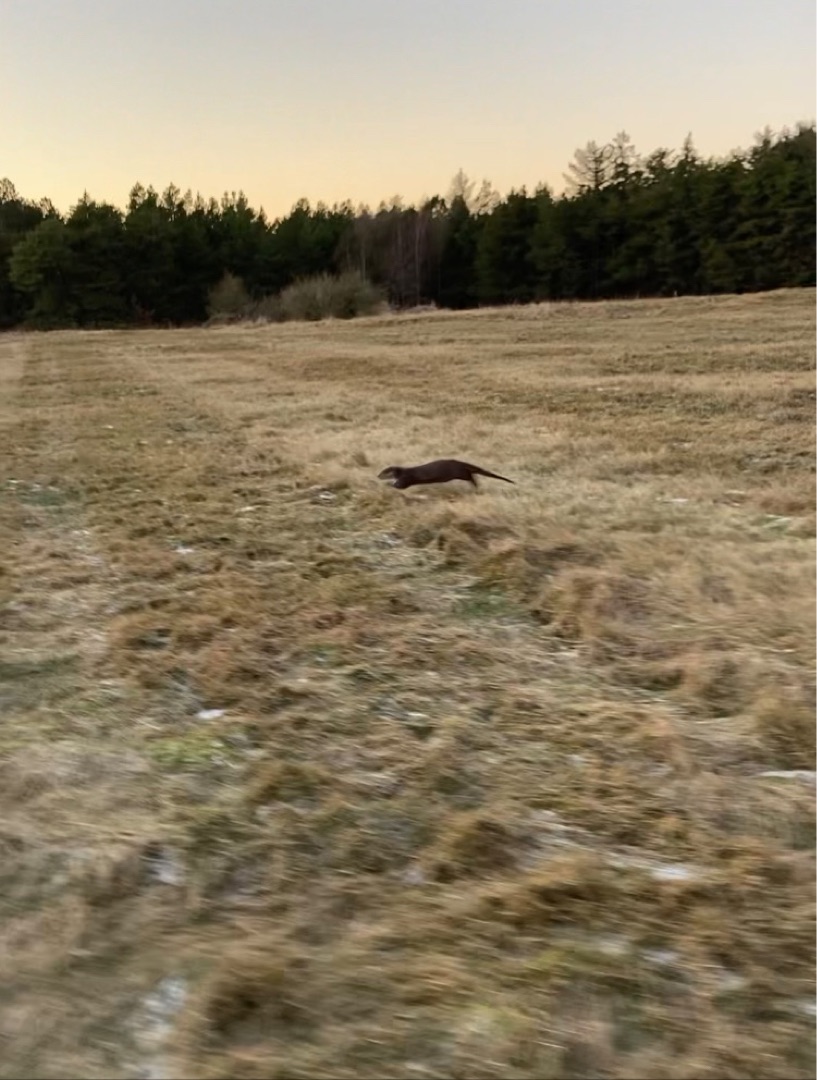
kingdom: Animalia
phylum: Chordata
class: Mammalia
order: Carnivora
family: Mustelidae
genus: Lutra
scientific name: Lutra lutra
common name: Odder
